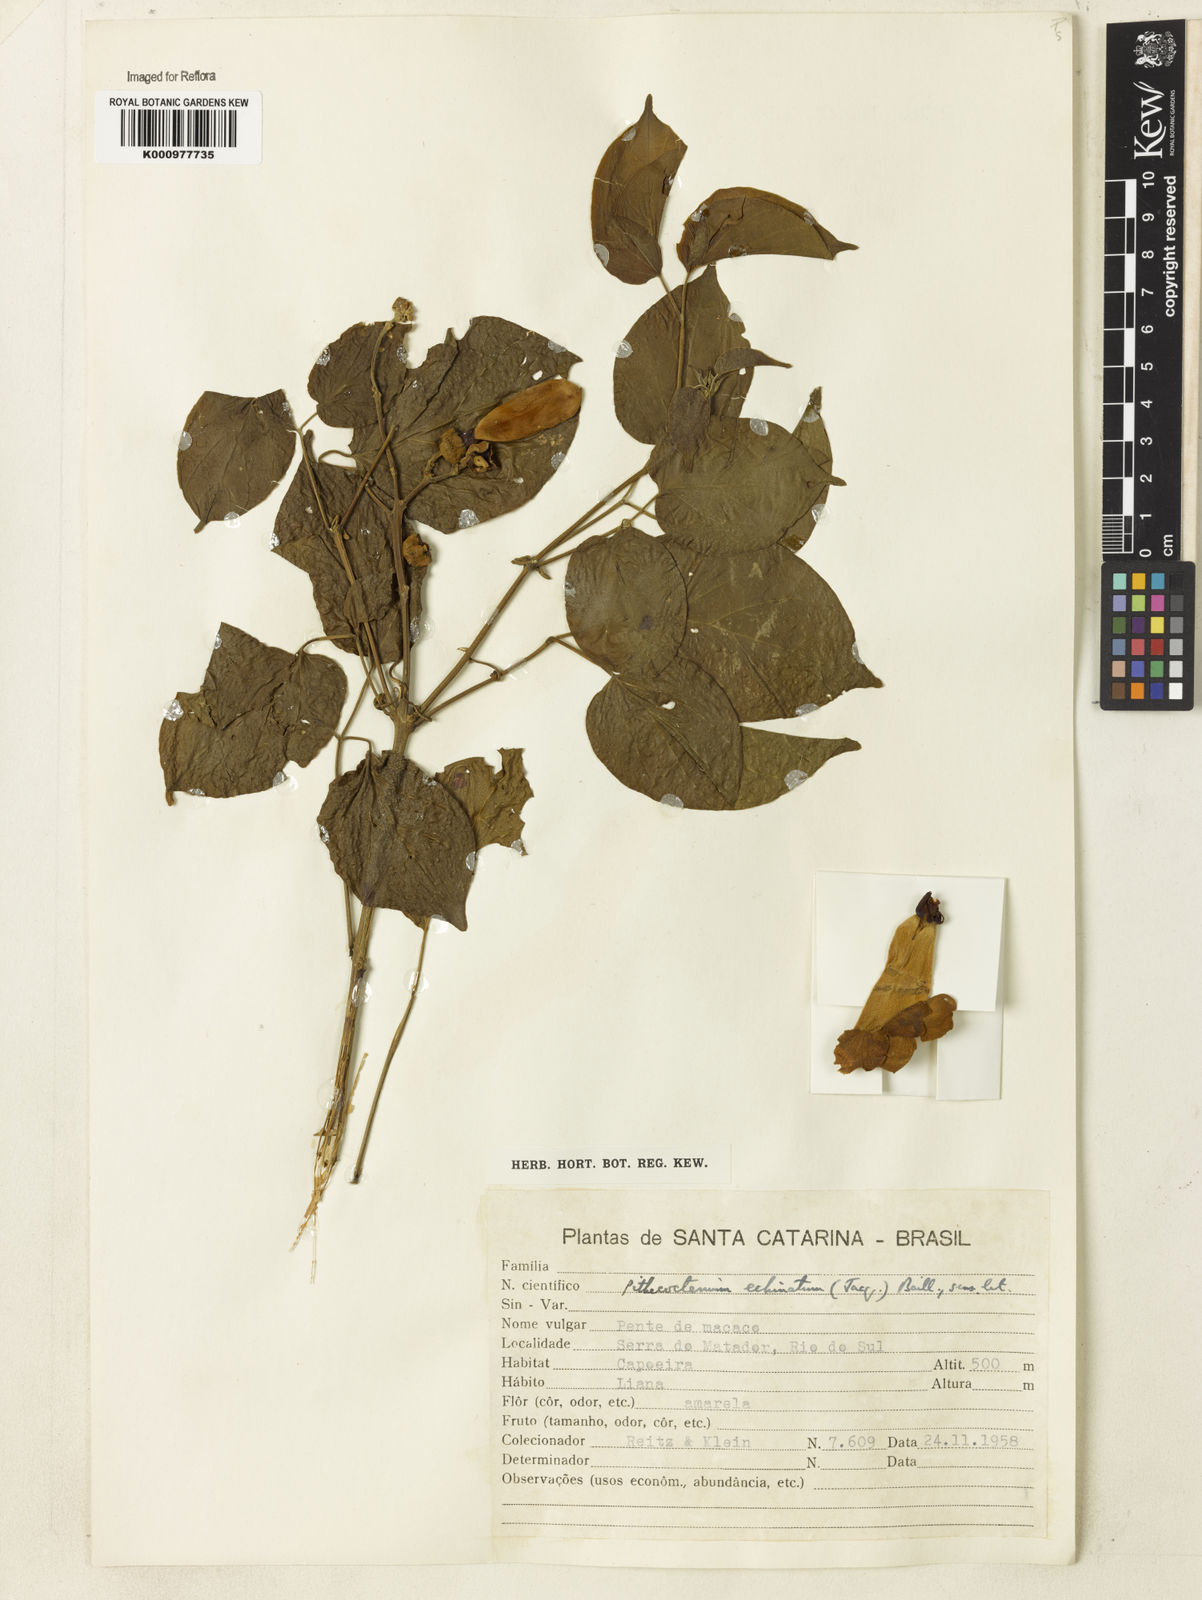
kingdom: Plantae
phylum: Tracheophyta
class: Magnoliopsida
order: Lamiales
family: Bignoniaceae
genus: Amphilophium
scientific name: Amphilophium crucigerum
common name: Monkey comb
